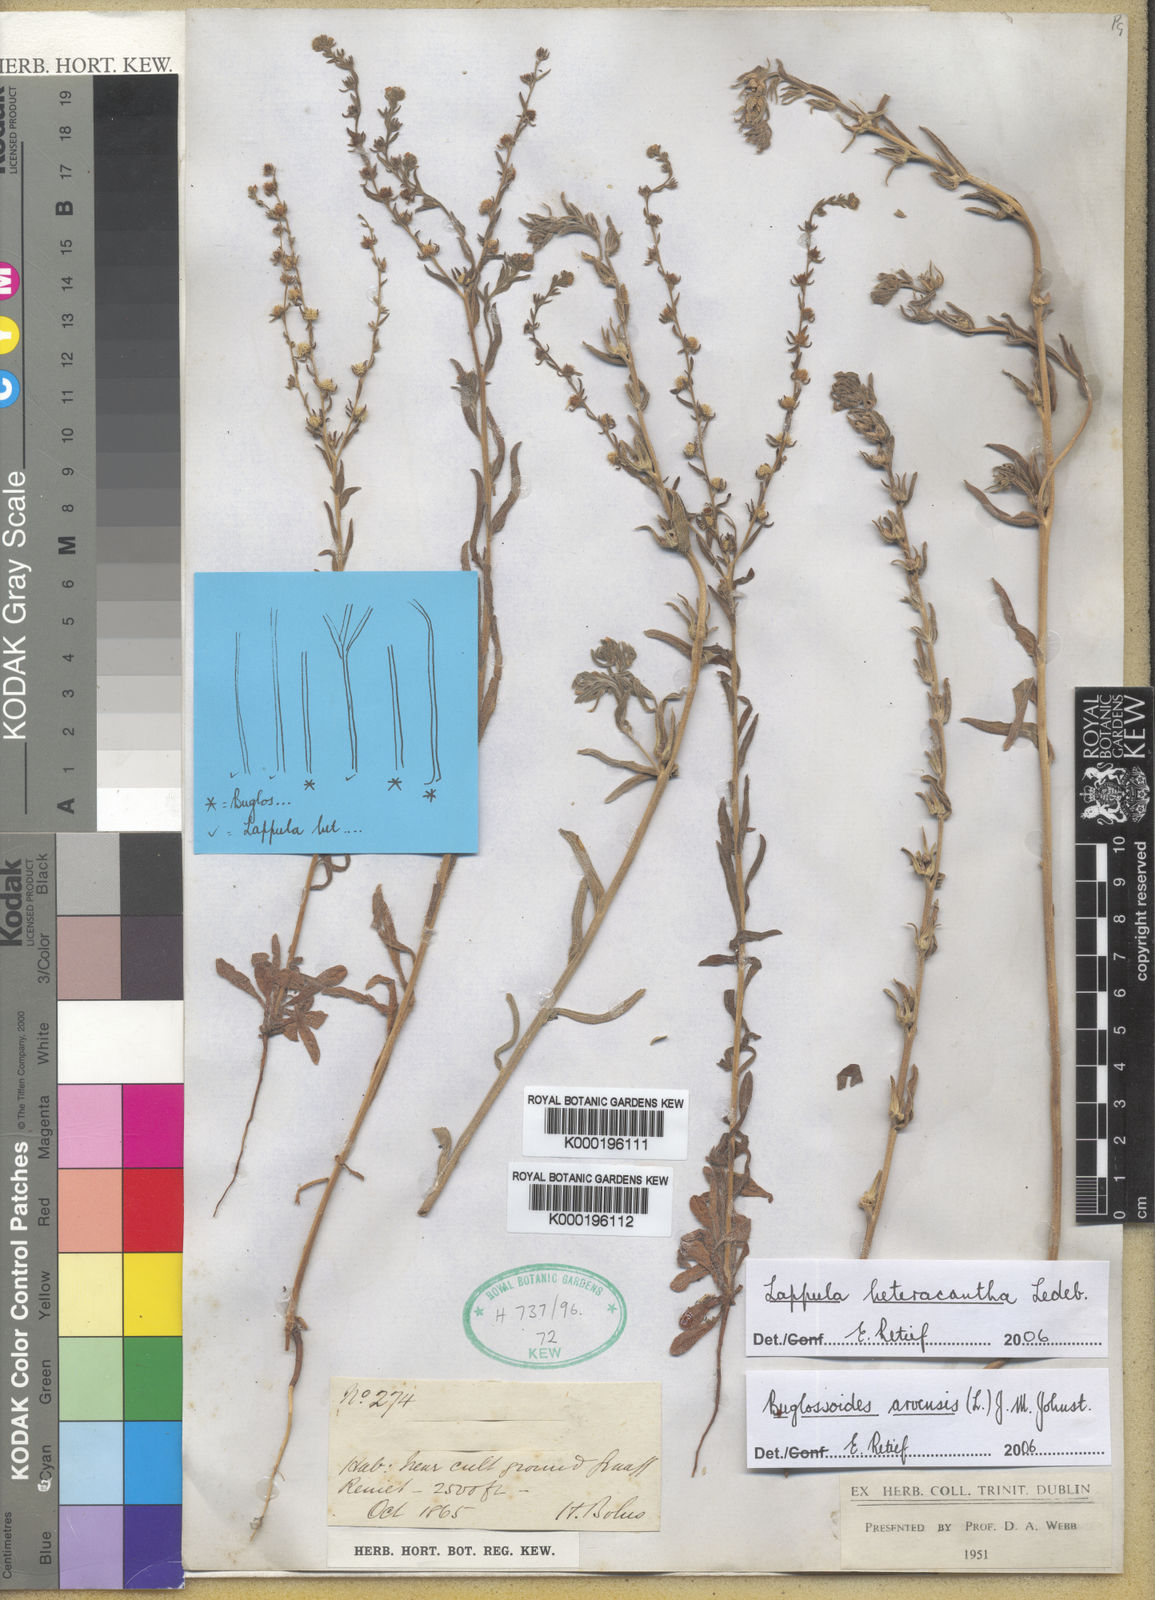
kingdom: Plantae
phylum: Tracheophyta
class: Magnoliopsida
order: Boraginales
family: Boraginaceae
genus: Buglossoides
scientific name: Buglossoides arvensis
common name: Corn gromwell
